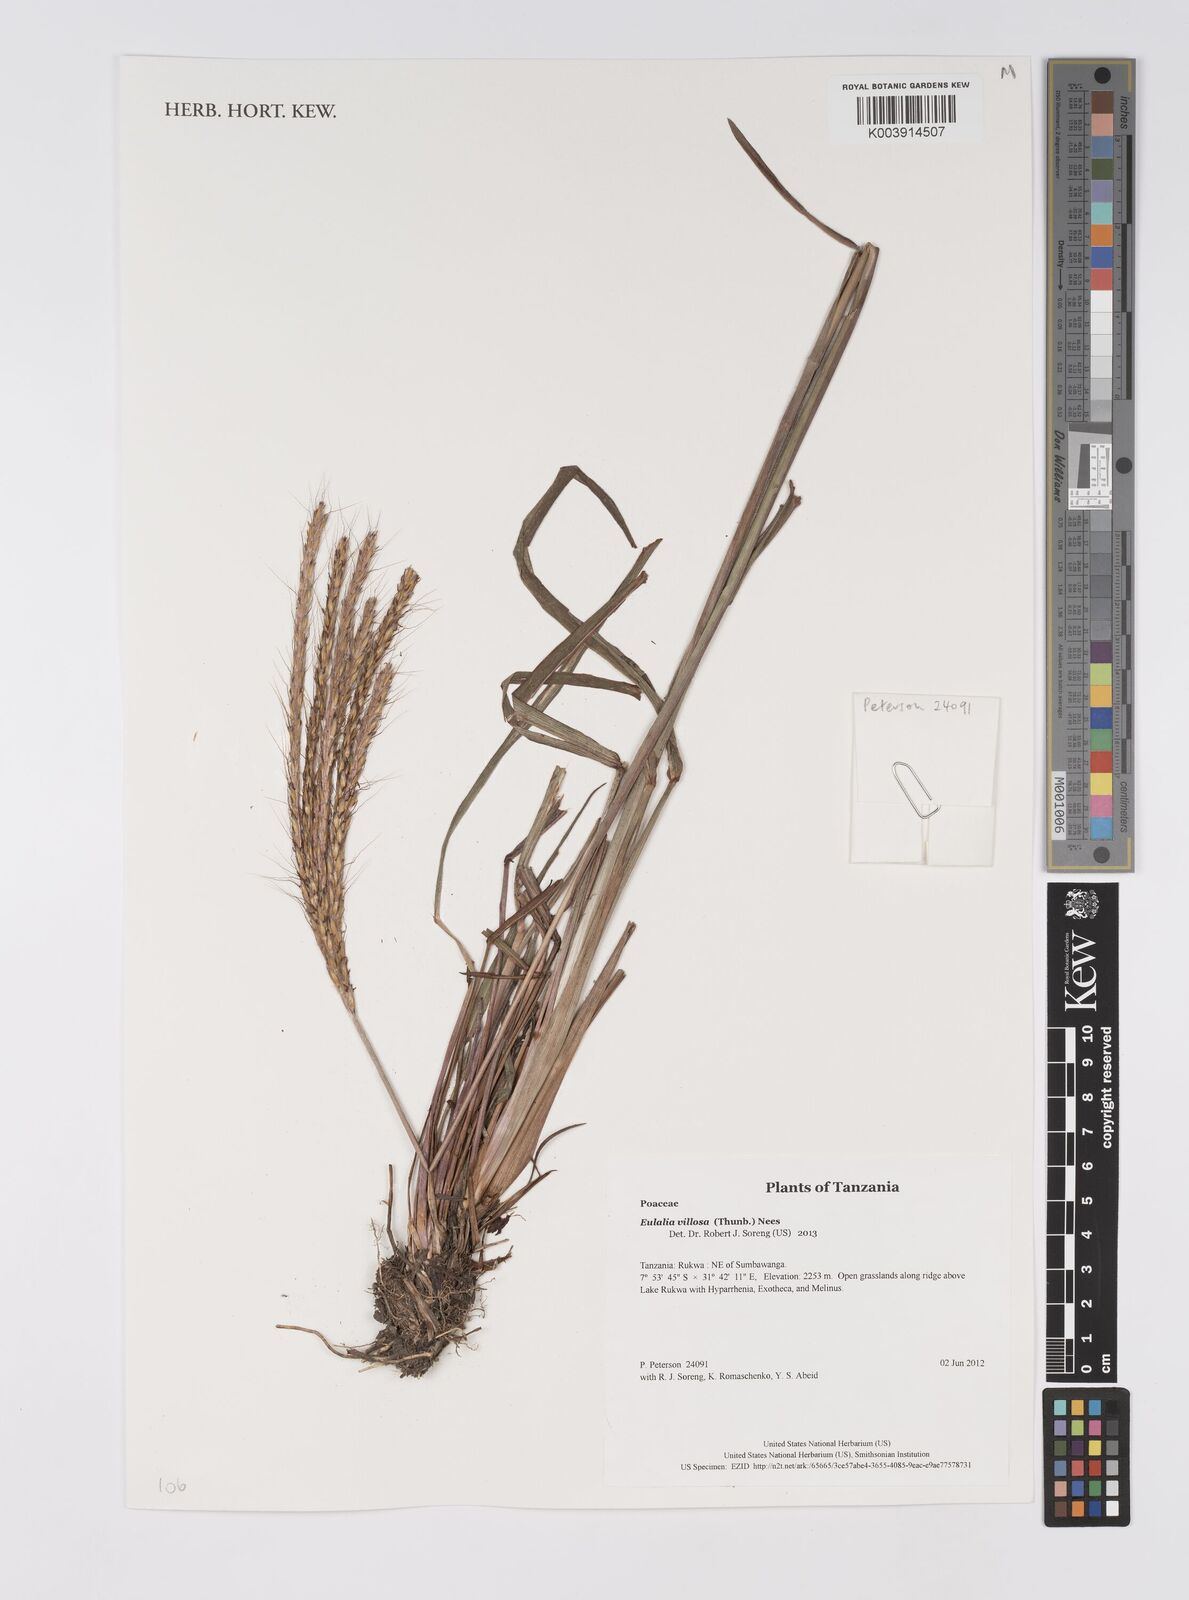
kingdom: Plantae
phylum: Tracheophyta
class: Liliopsida
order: Poales
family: Poaceae
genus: Eulalia
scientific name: Eulalia villosa
